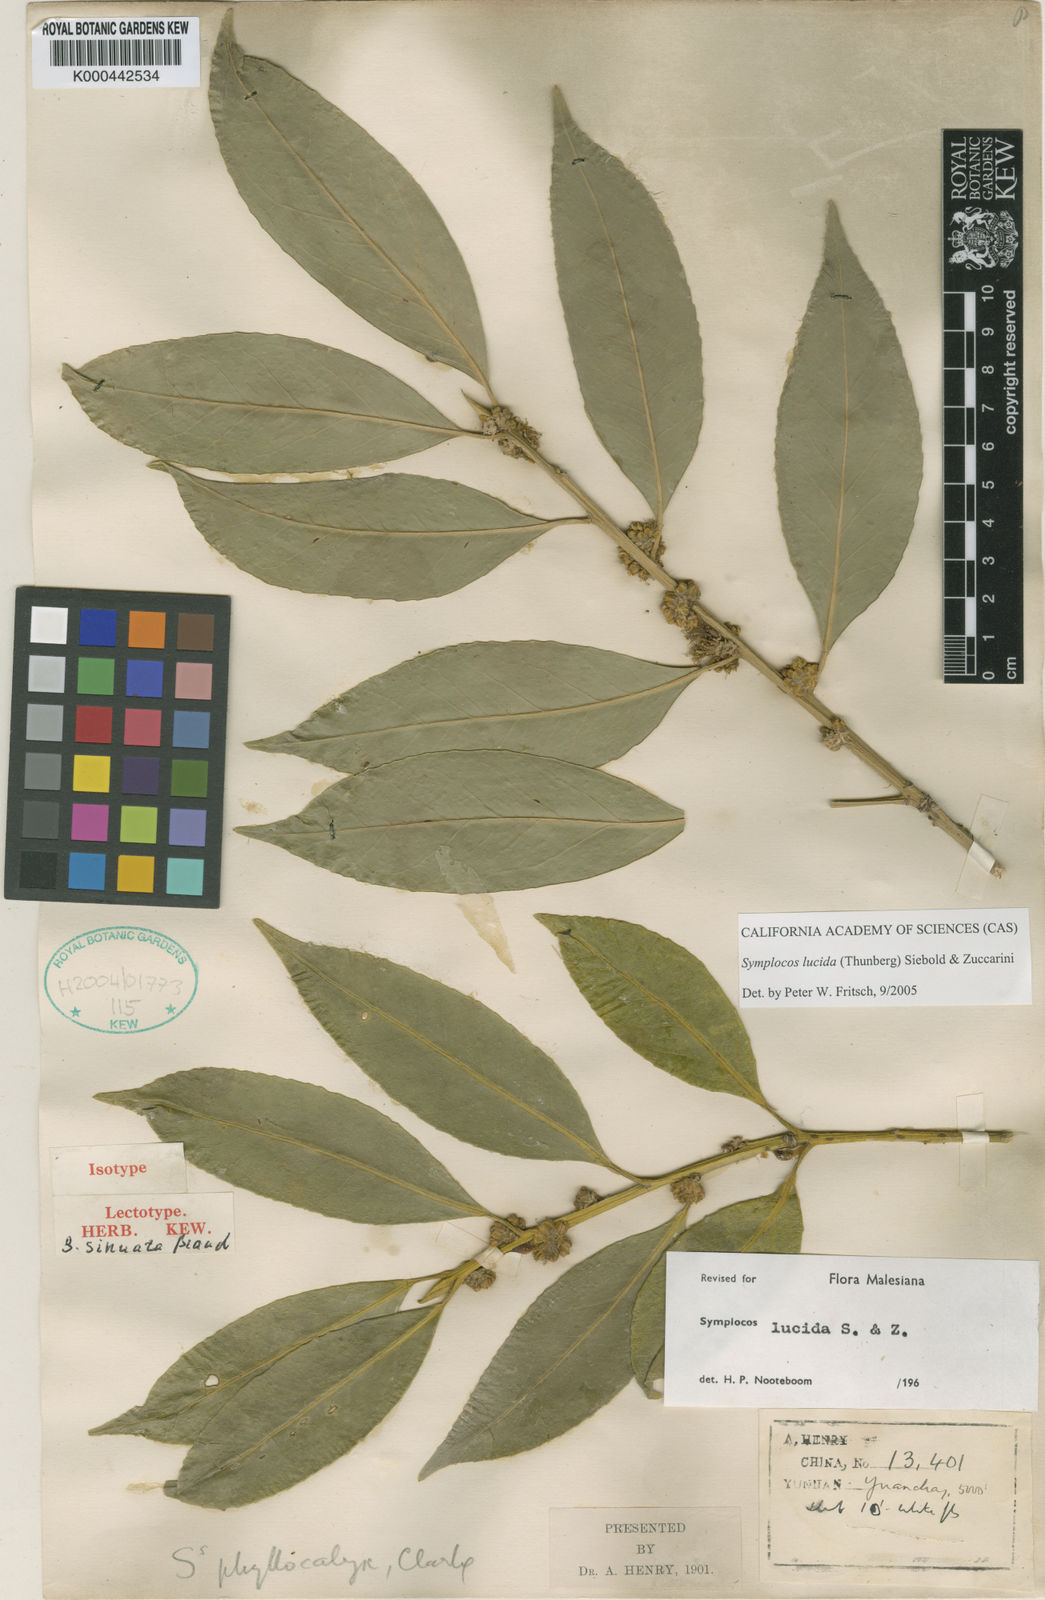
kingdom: Plantae
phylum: Tracheophyta
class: Magnoliopsida
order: Ericales
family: Symplocaceae
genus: Symplocos
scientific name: Symplocos
